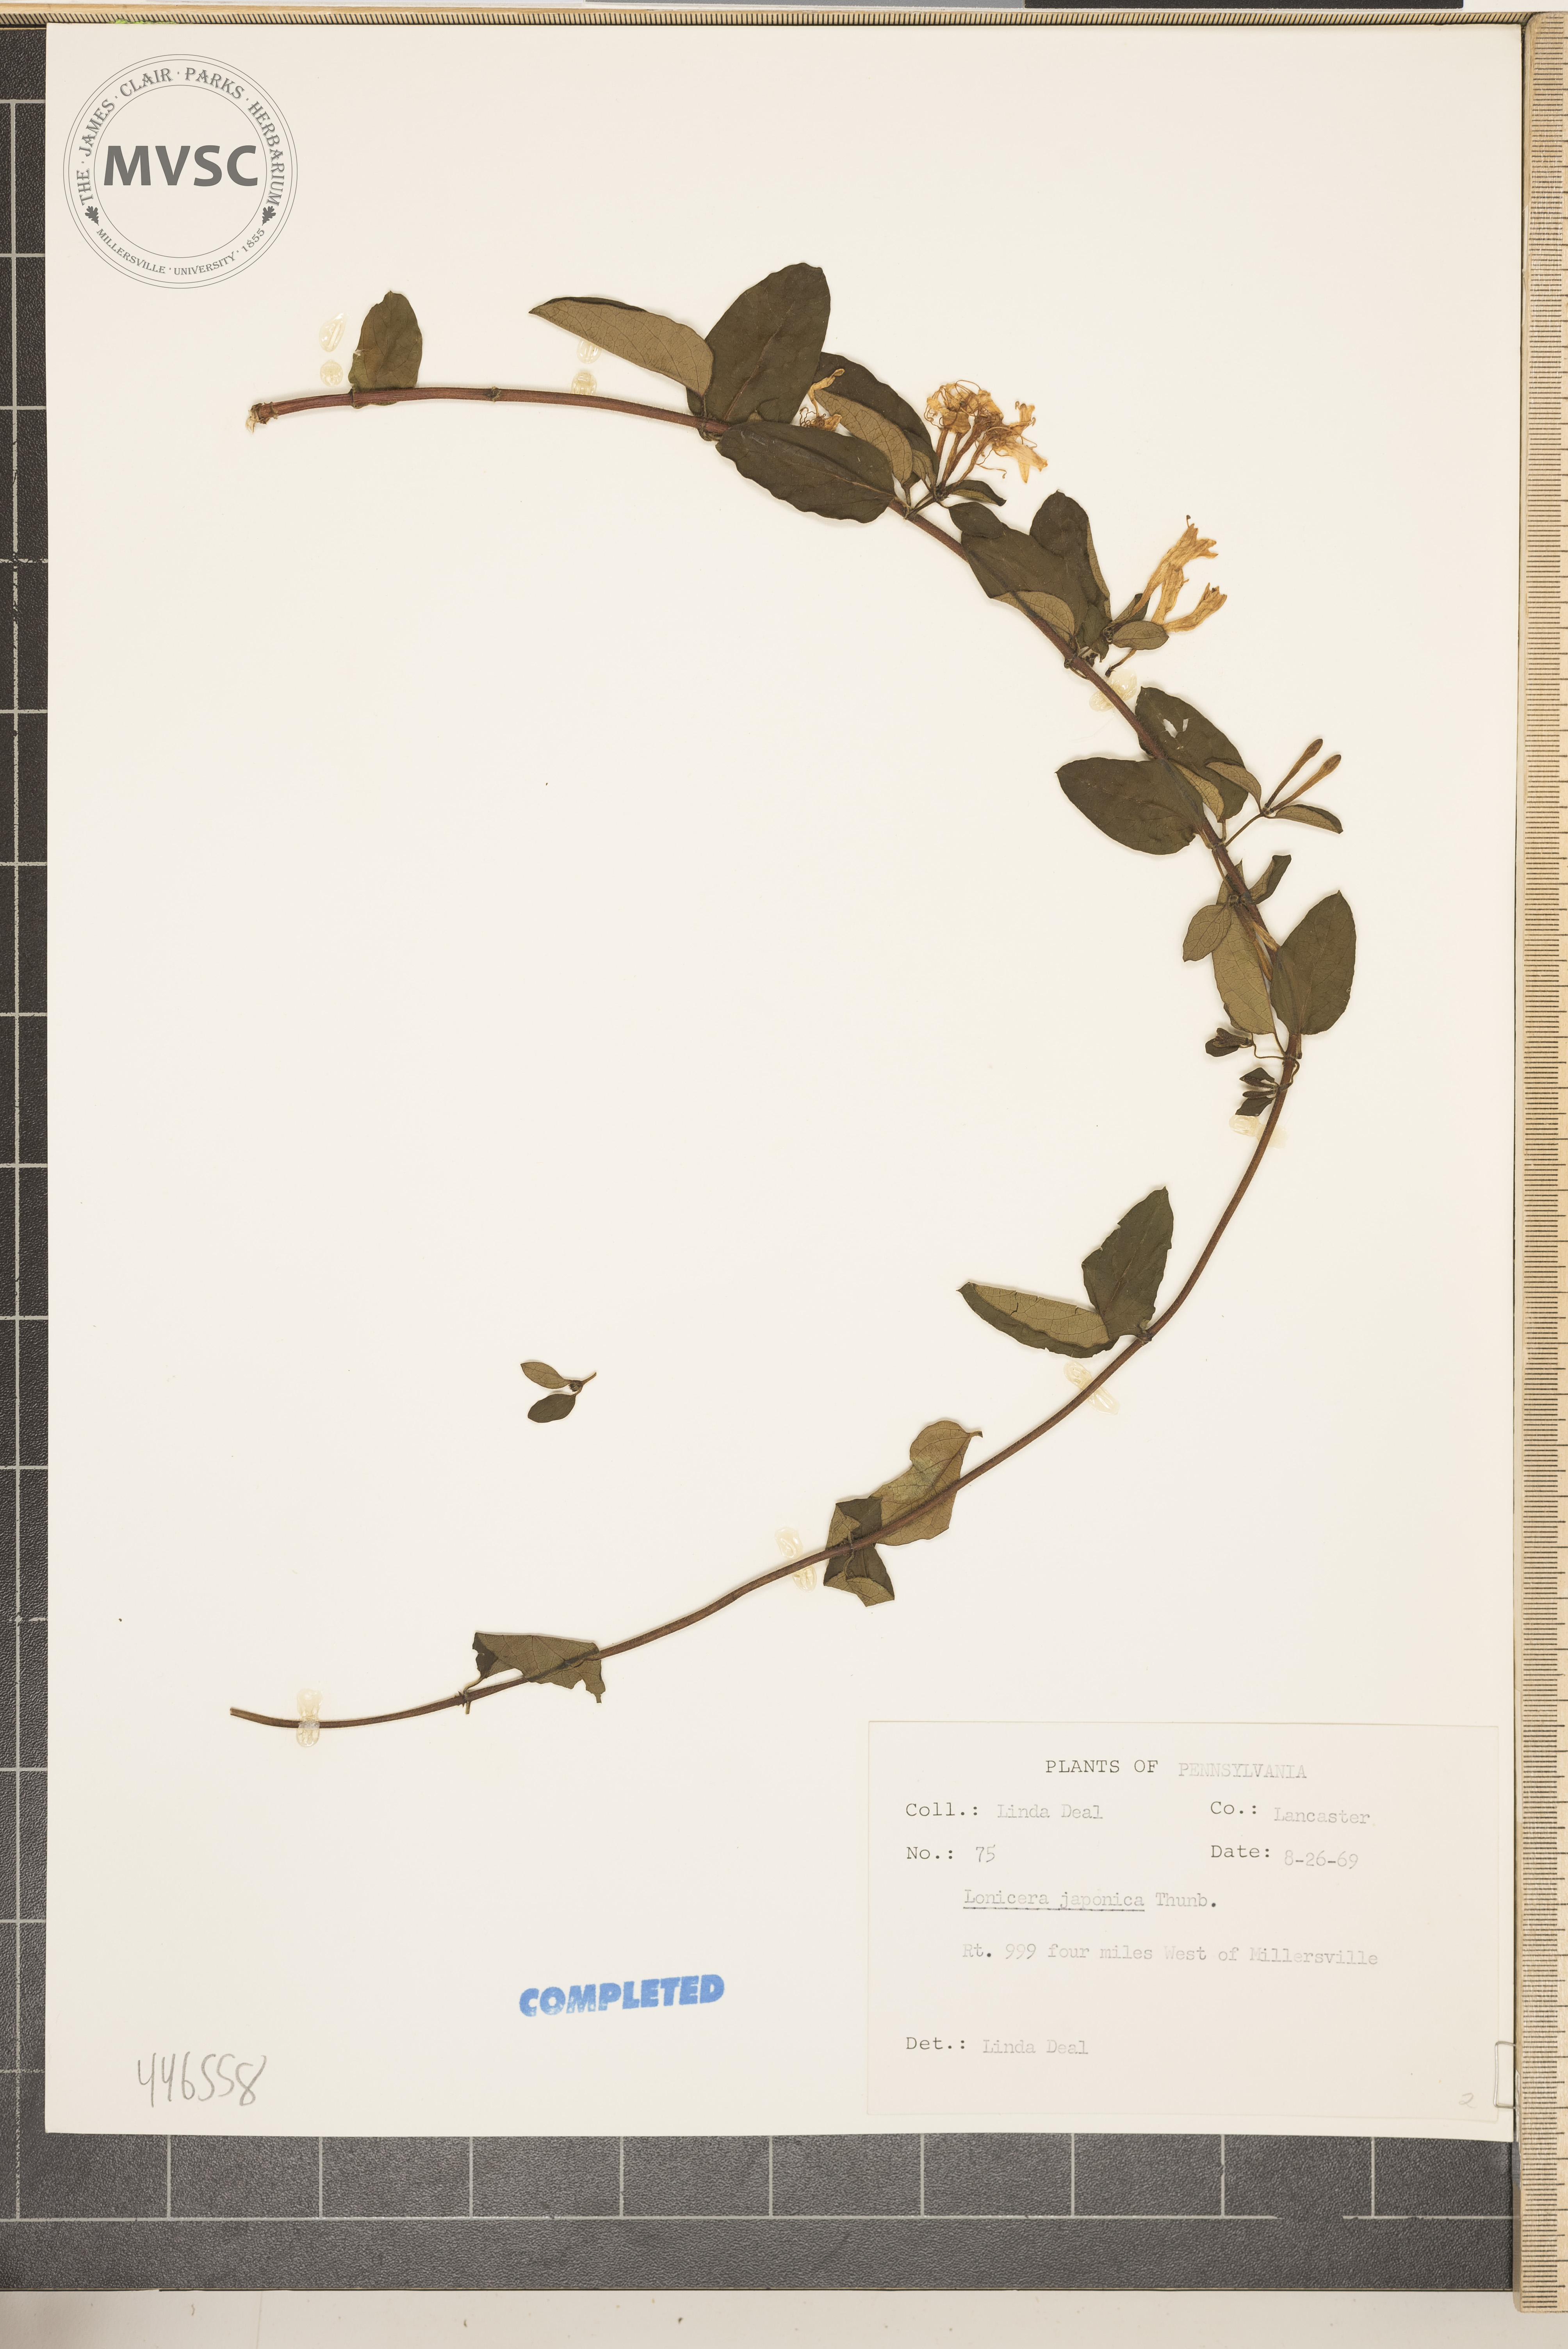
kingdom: Plantae
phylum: Tracheophyta
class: Magnoliopsida
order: Dipsacales
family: Caprifoliaceae
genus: Lonicera
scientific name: Lonicera japonica
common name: Japanese honeysuckle
